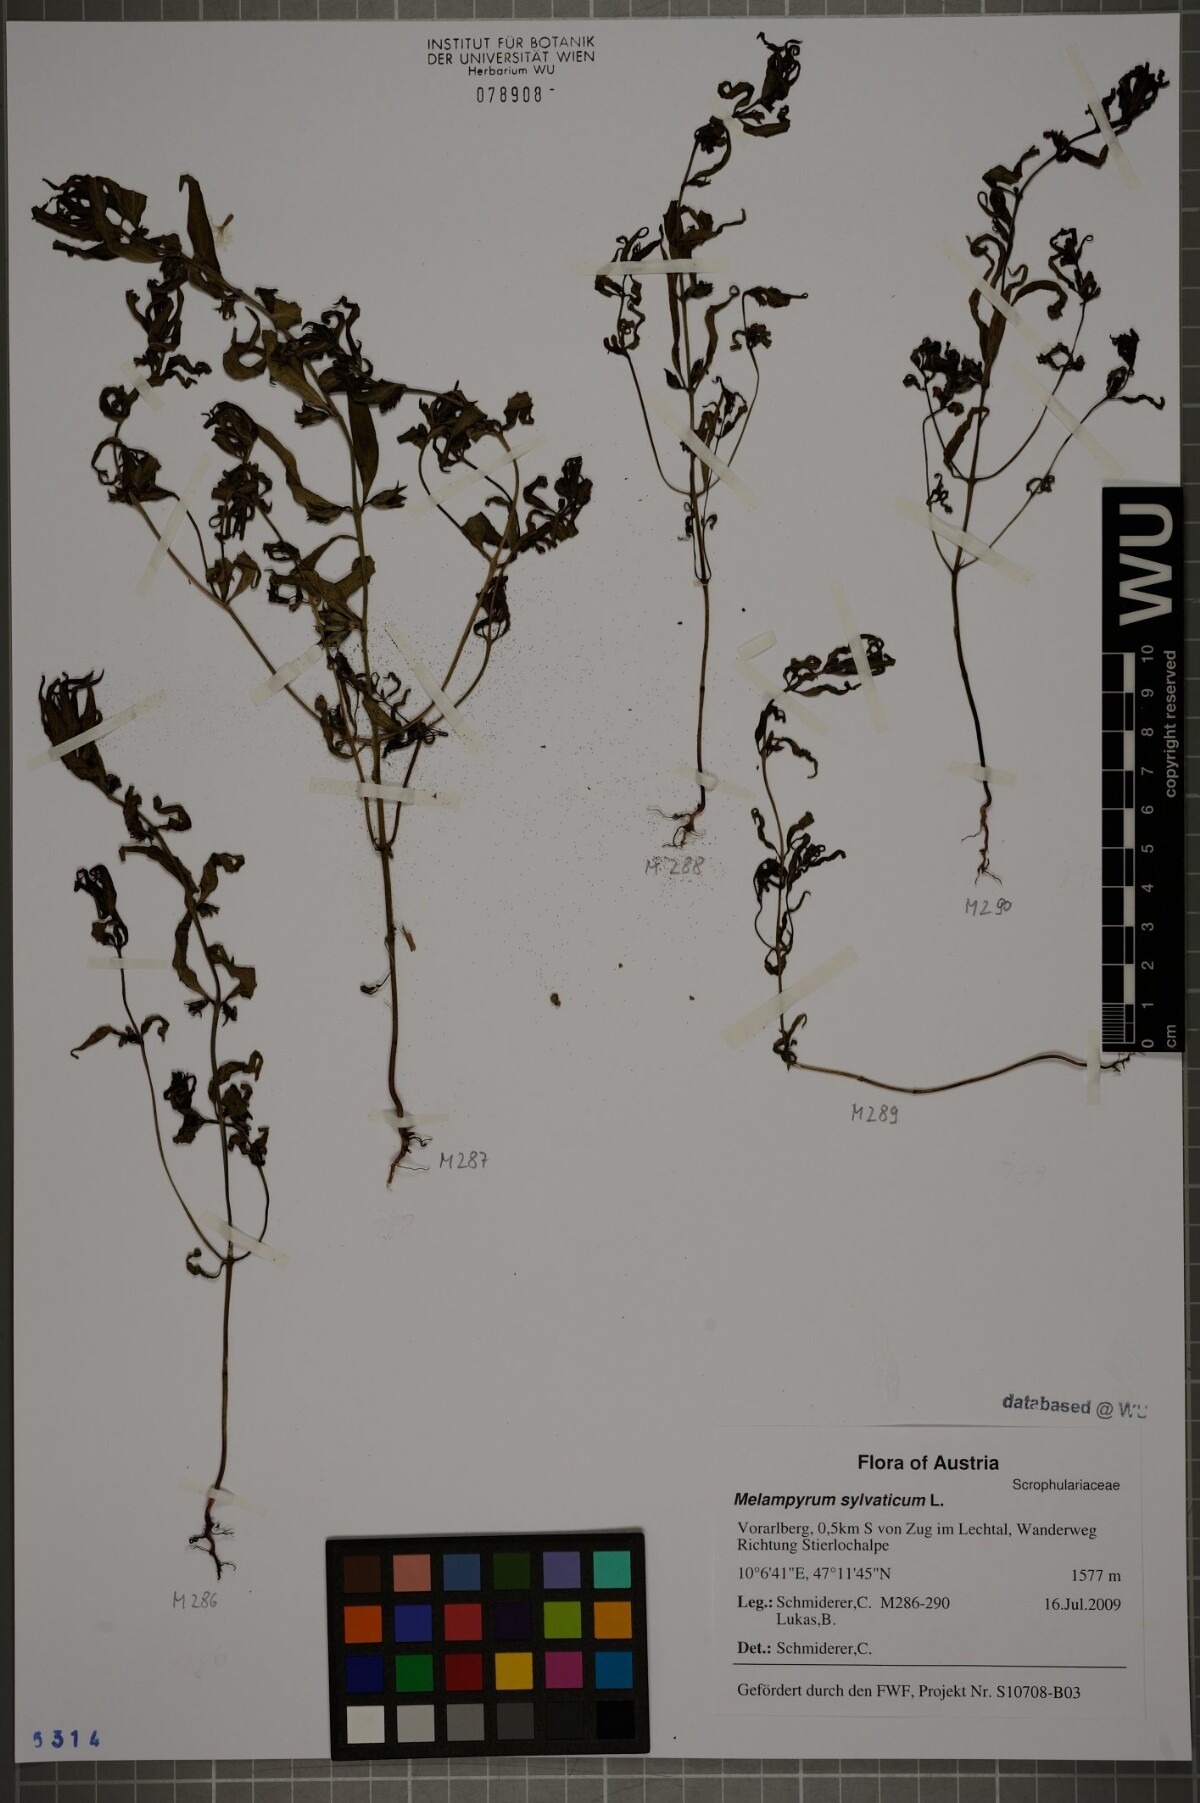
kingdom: Plantae
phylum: Tracheophyta
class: Magnoliopsida
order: Lamiales
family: Orobanchaceae
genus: Melampyrum
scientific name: Melampyrum sylvaticum
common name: Small cow-wheat
